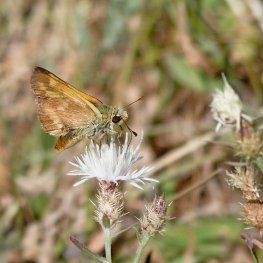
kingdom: Animalia
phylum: Arthropoda
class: Insecta
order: Lepidoptera
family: Hesperiidae
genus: Ochlodes
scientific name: Ochlodes sylvanoides
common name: Woodland Skipper
